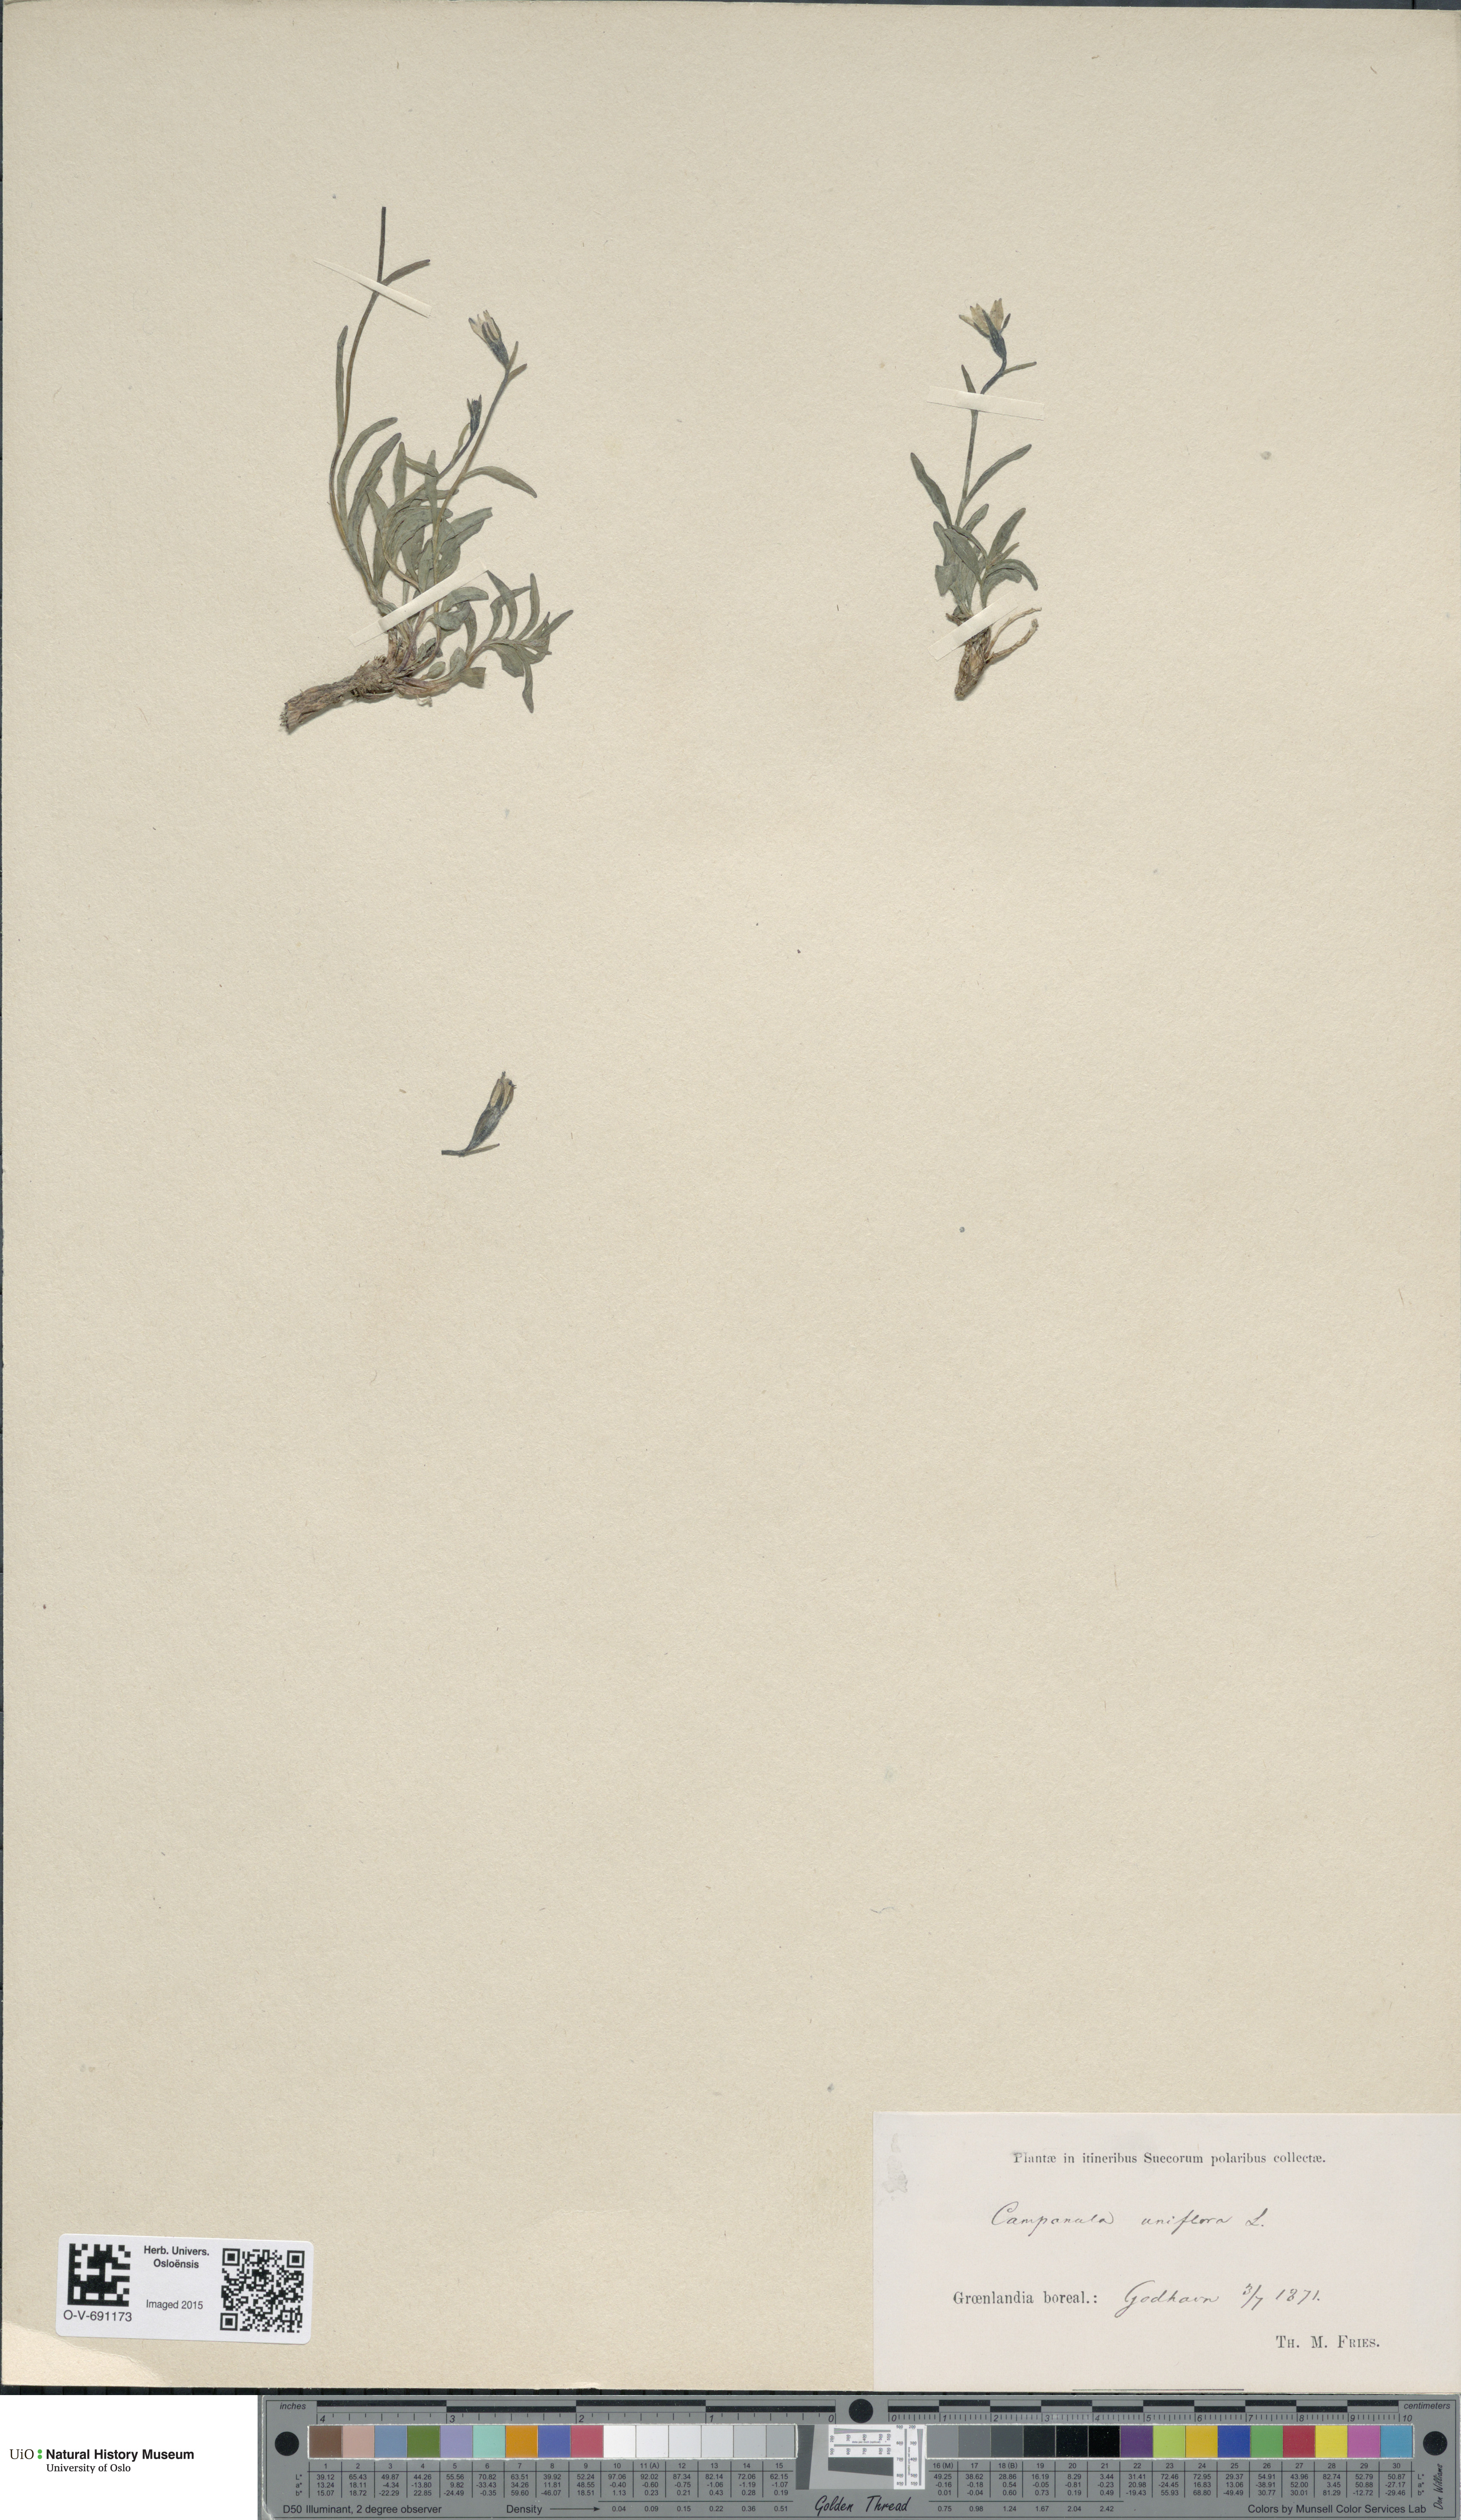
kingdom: Plantae
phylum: Tracheophyta
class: Magnoliopsida
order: Asterales
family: Campanulaceae
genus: Melanocalyx
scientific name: Melanocalyx uniflora
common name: Alpine harebell
